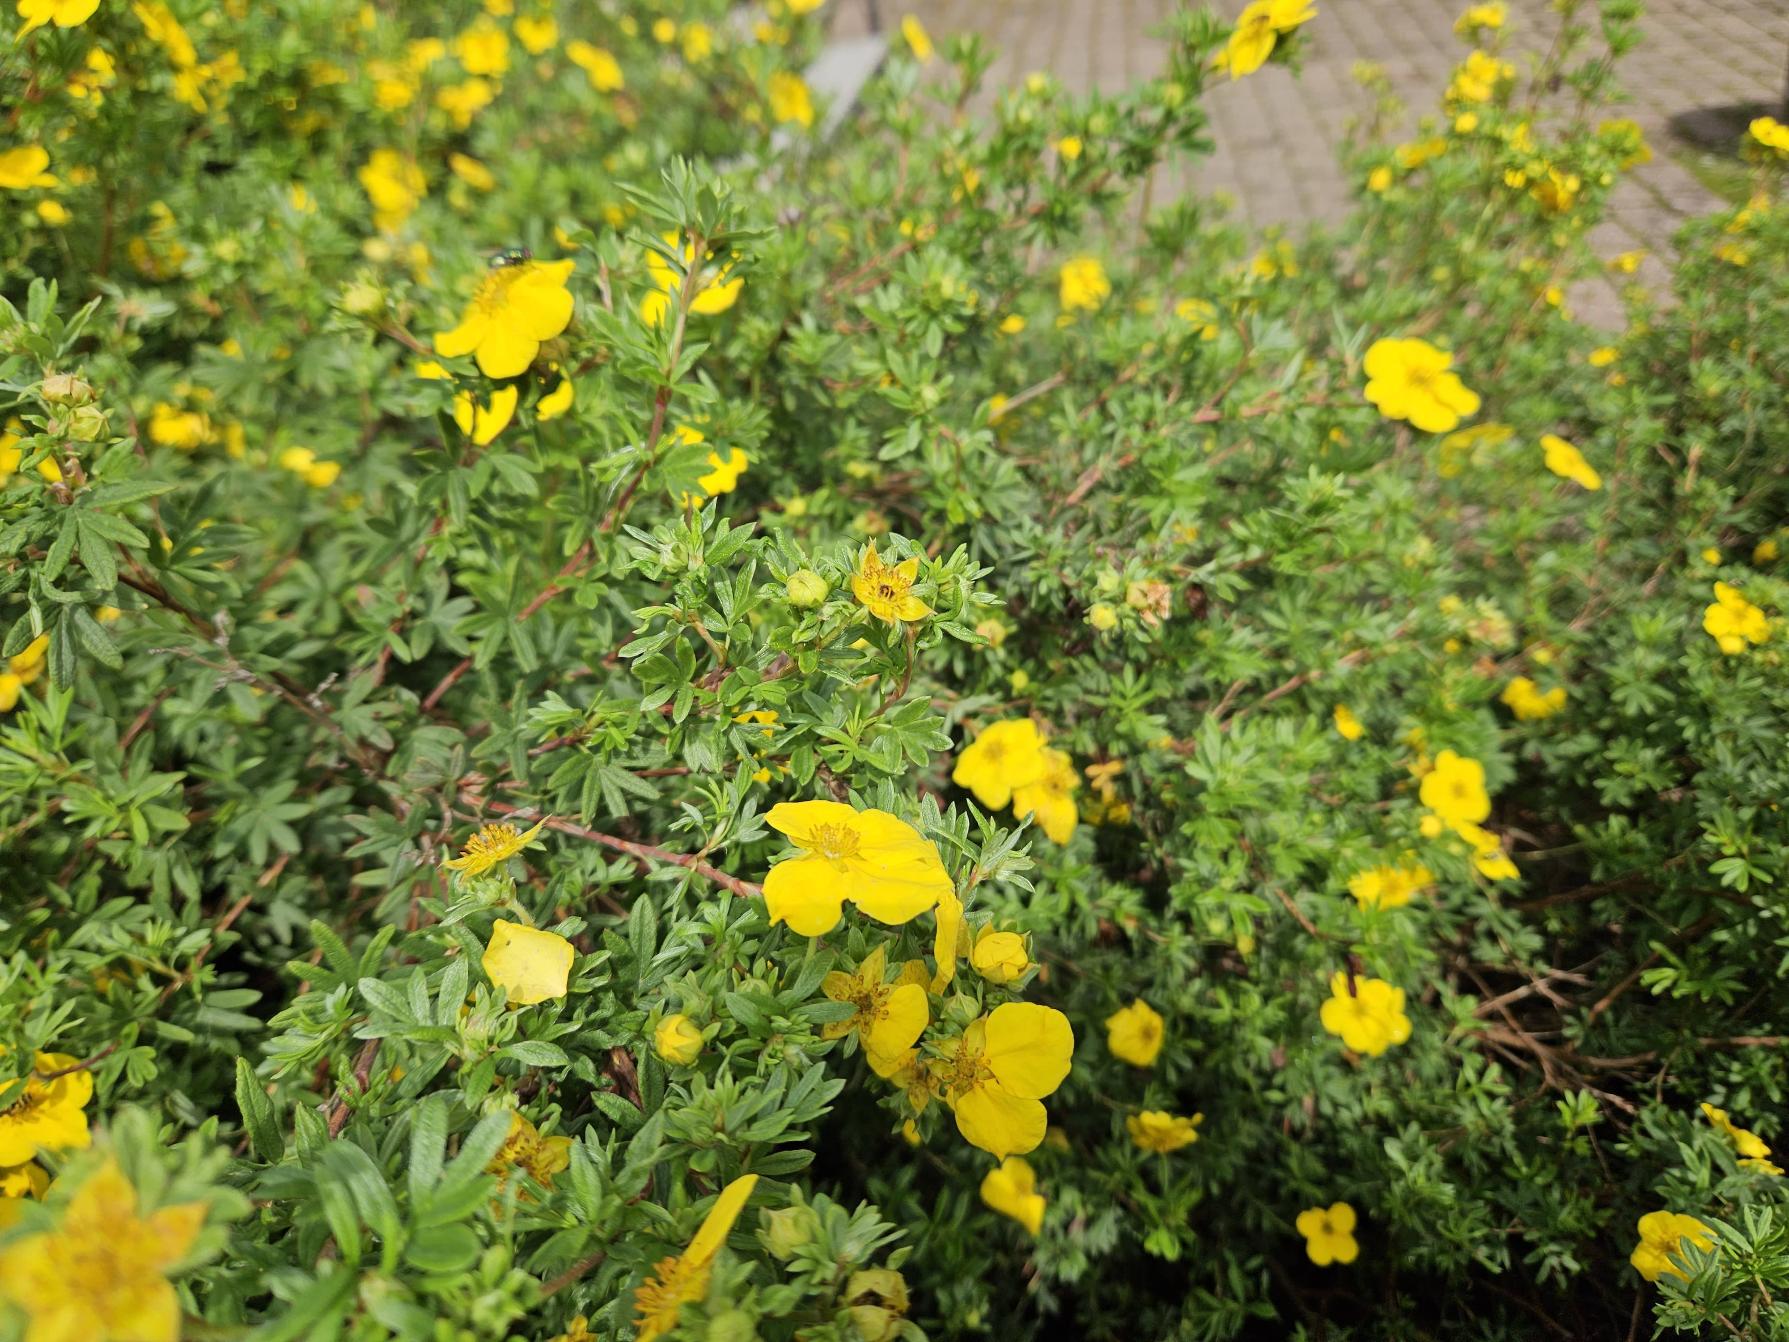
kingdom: Plantae
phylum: Tracheophyta
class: Magnoliopsida
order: Rosales
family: Rosaceae
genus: Dasiphora
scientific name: Dasiphora fruticosa
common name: Buskpotentil
